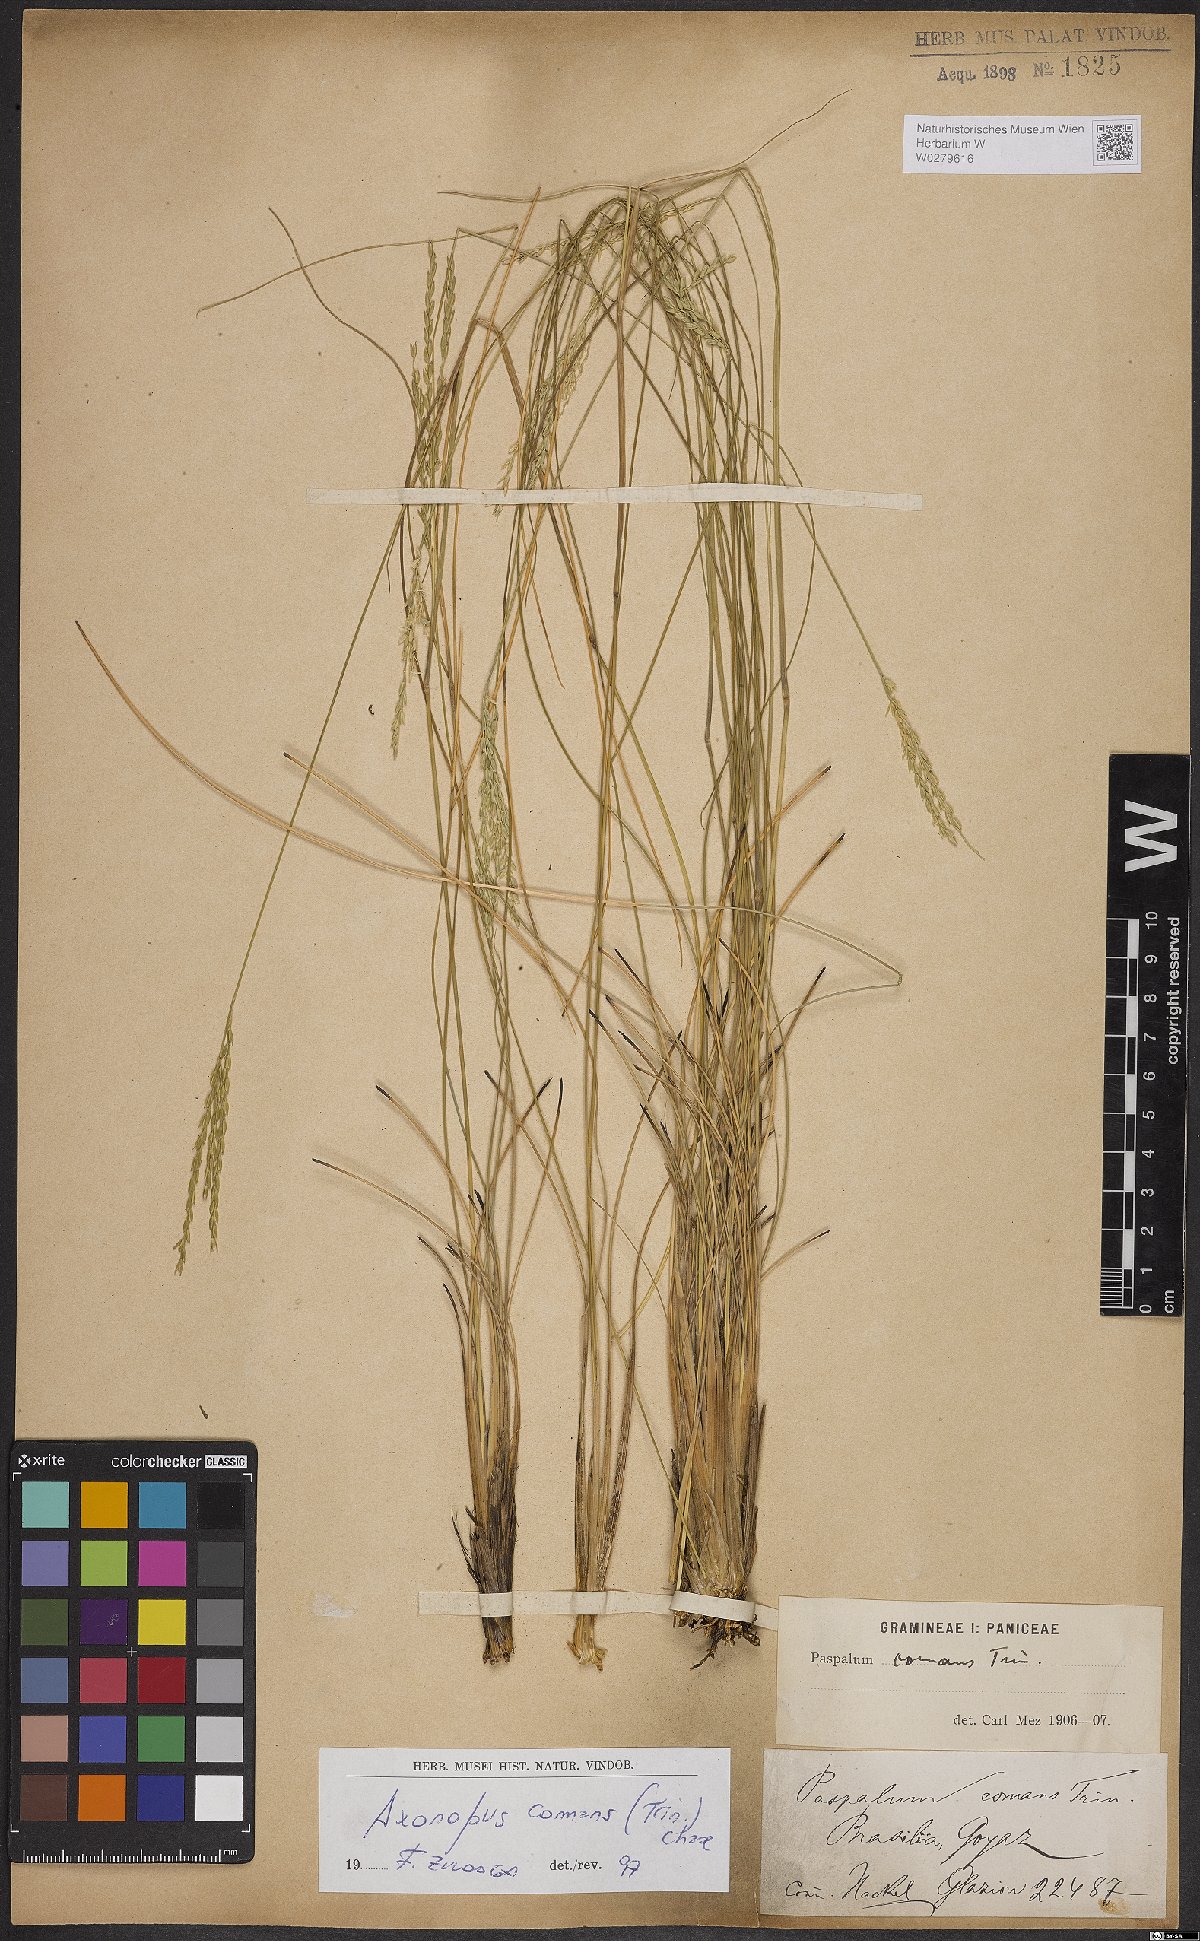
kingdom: Plantae
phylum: Tracheophyta
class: Liliopsida
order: Poales
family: Poaceae
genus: Axonopus
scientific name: Axonopus comans
